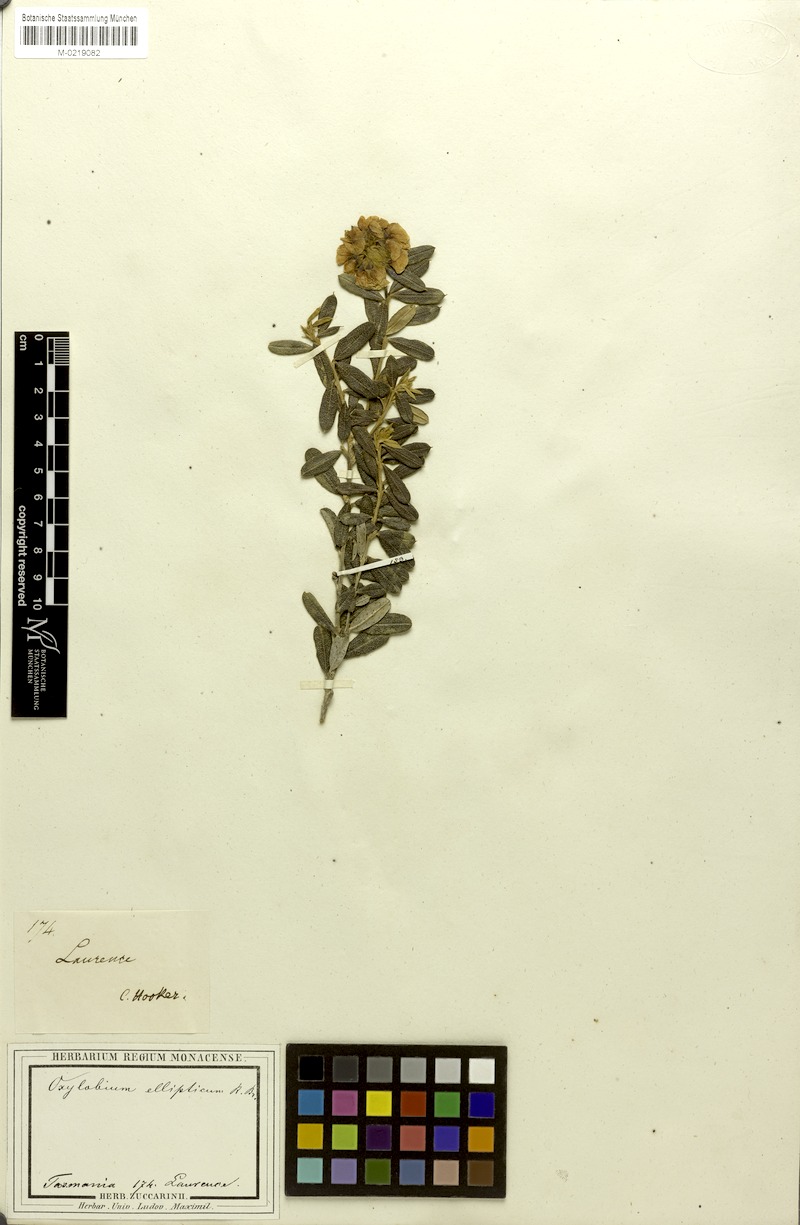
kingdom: Plantae
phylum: Tracheophyta
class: Magnoliopsida
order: Fabales
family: Fabaceae
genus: Oxylobium
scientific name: Oxylobium ellipticum
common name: Golden shaggy-pea
